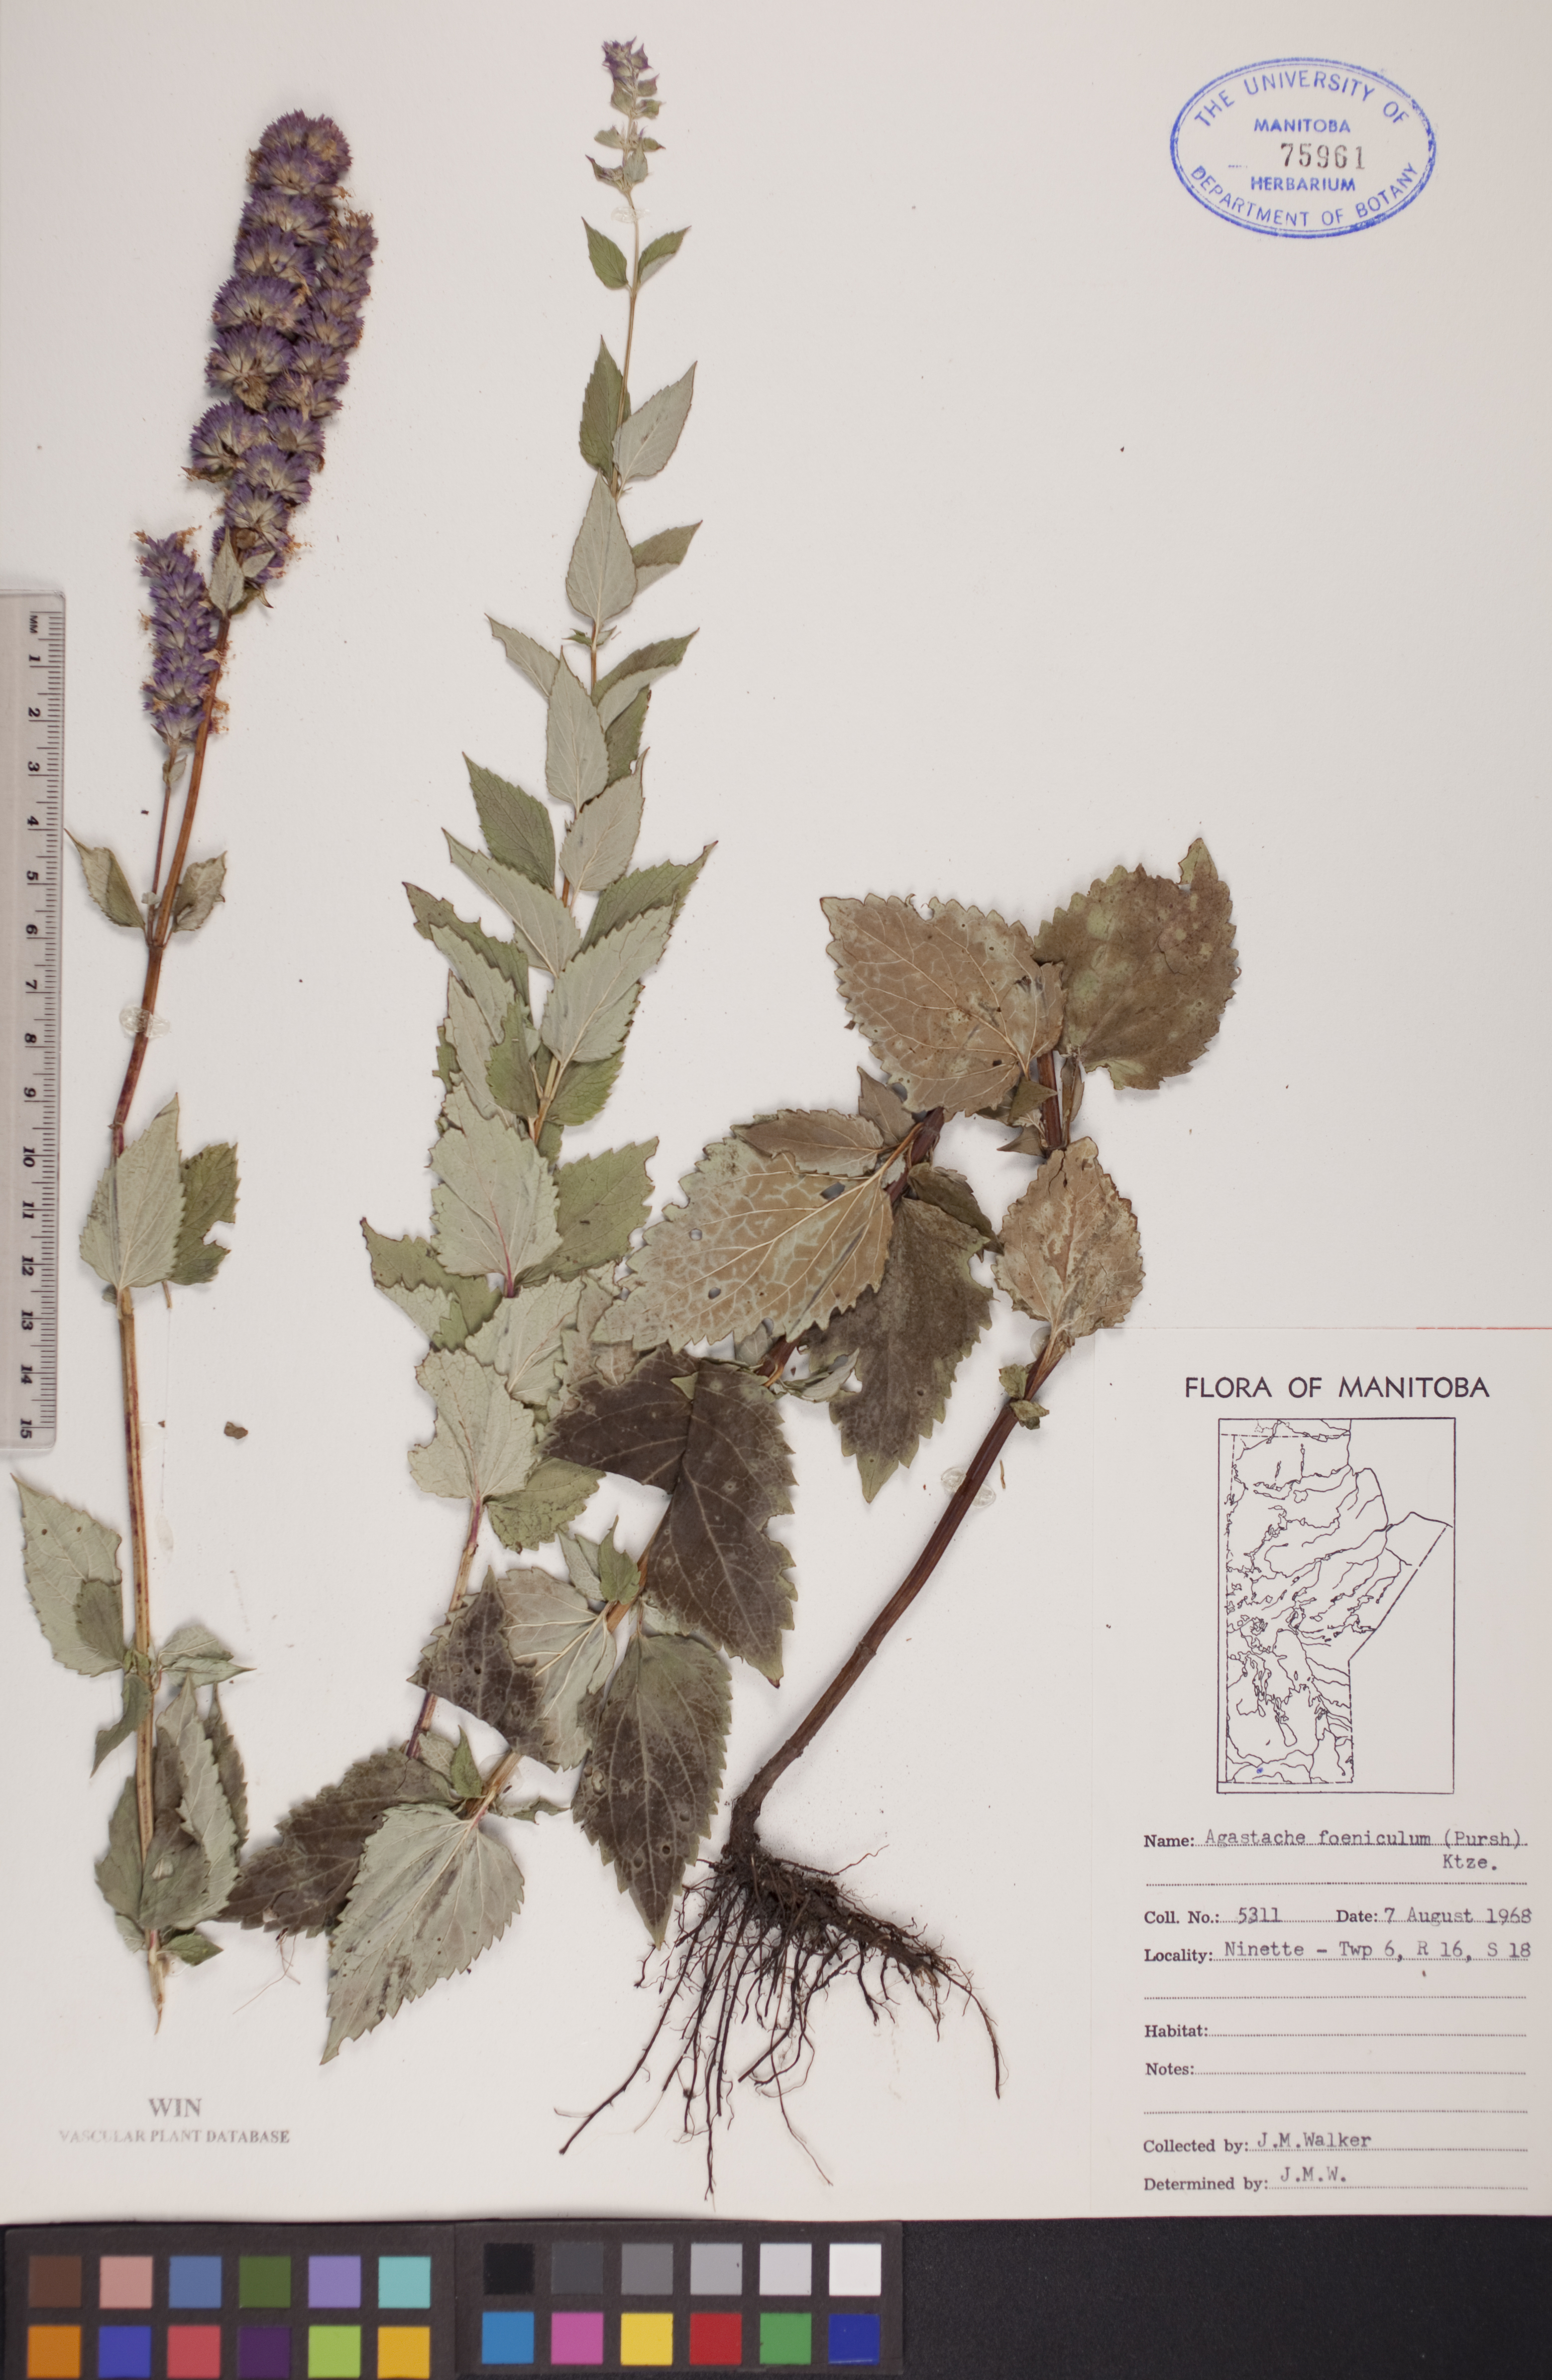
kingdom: Plantae
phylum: Tracheophyta
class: Magnoliopsida
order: Lamiales
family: Lamiaceae
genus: Agastache
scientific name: Agastache foeniculum
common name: Anise hyssop
